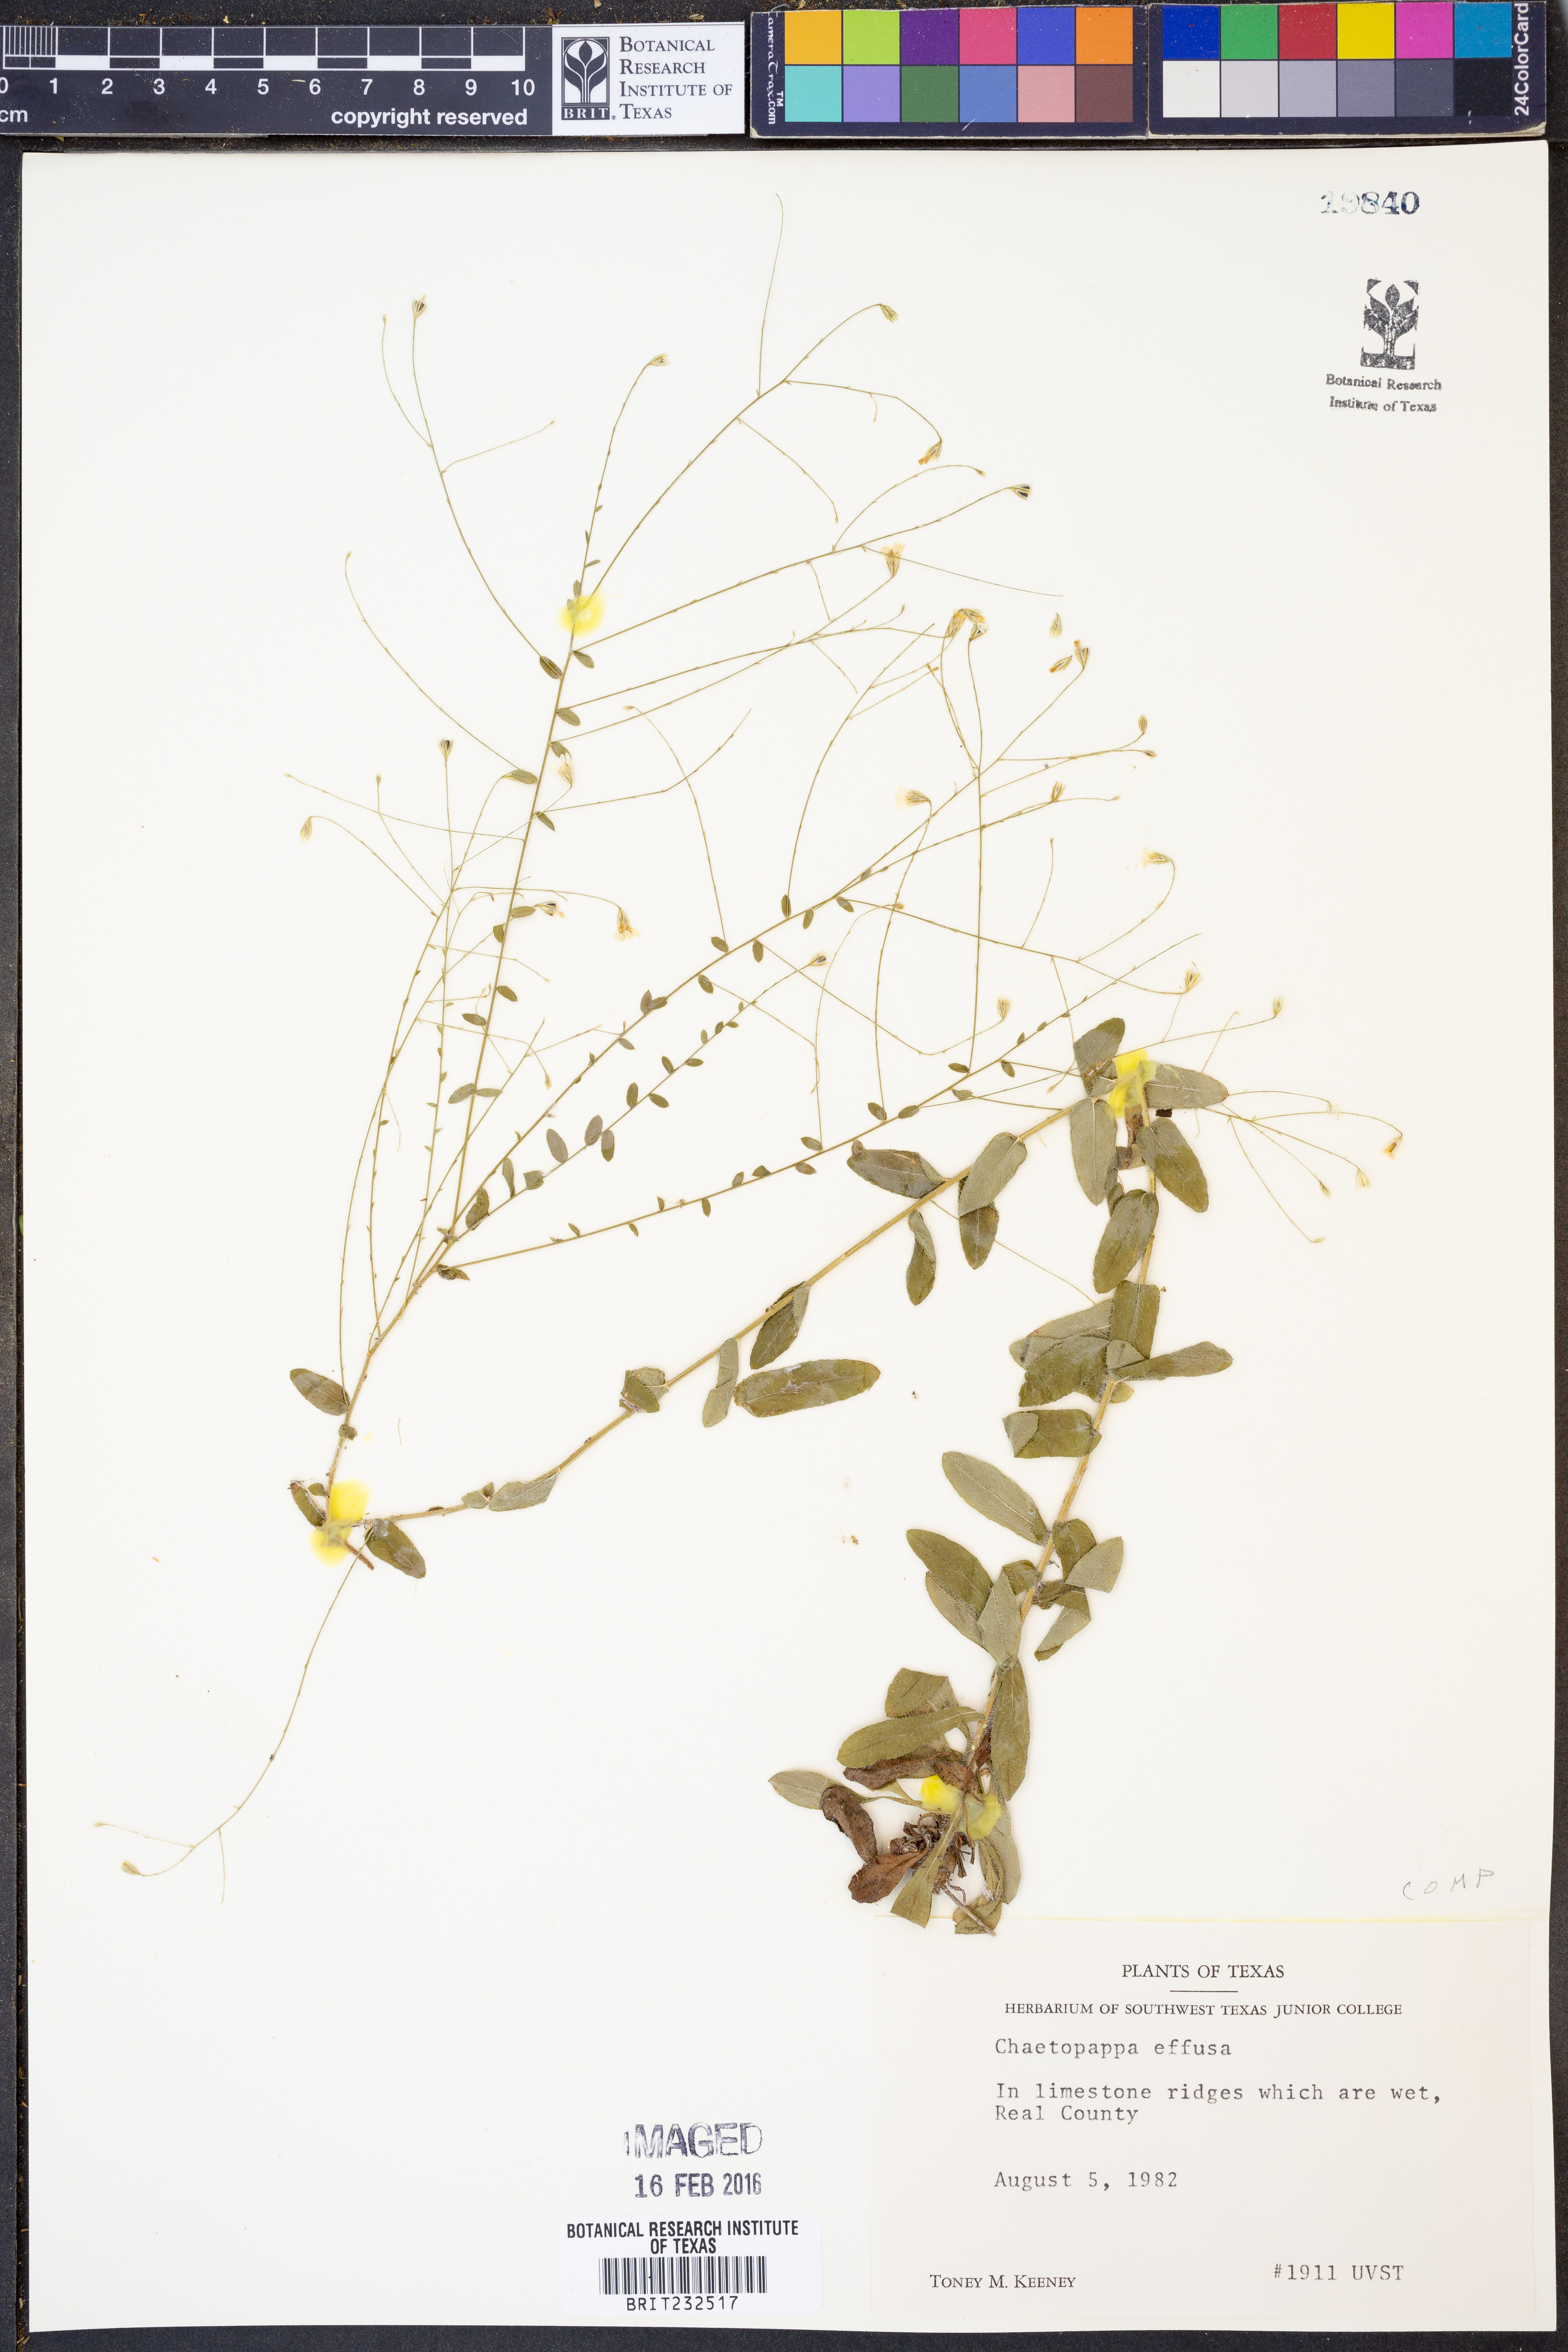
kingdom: Plantae
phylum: Tracheophyta
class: Magnoliopsida
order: Asterales
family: Asteraceae
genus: Chaetopappa
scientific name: Chaetopappa effusa
